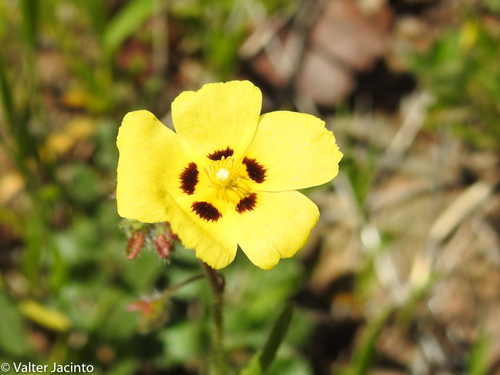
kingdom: Plantae
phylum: Tracheophyta
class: Magnoliopsida
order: Malvales
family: Cistaceae
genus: Tuberaria
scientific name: Tuberaria guttata
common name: Spotted rock-rose
